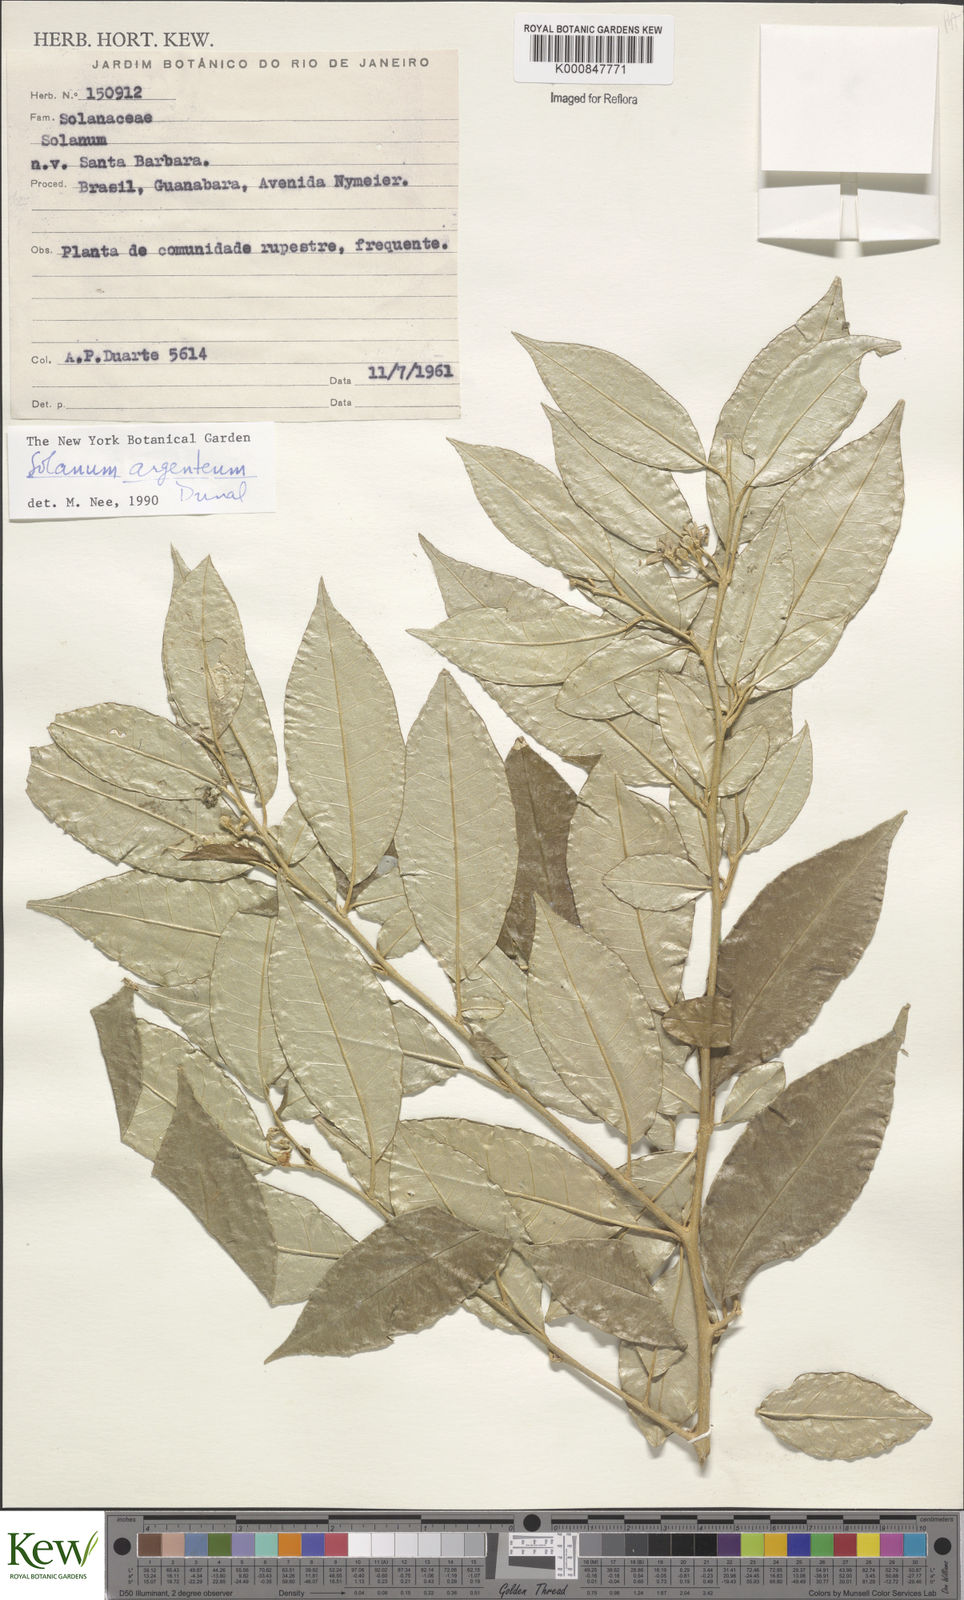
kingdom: Plantae
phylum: Tracheophyta
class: Magnoliopsida
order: Solanales
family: Solanaceae
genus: Solanum
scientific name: Solanum swartzianum
